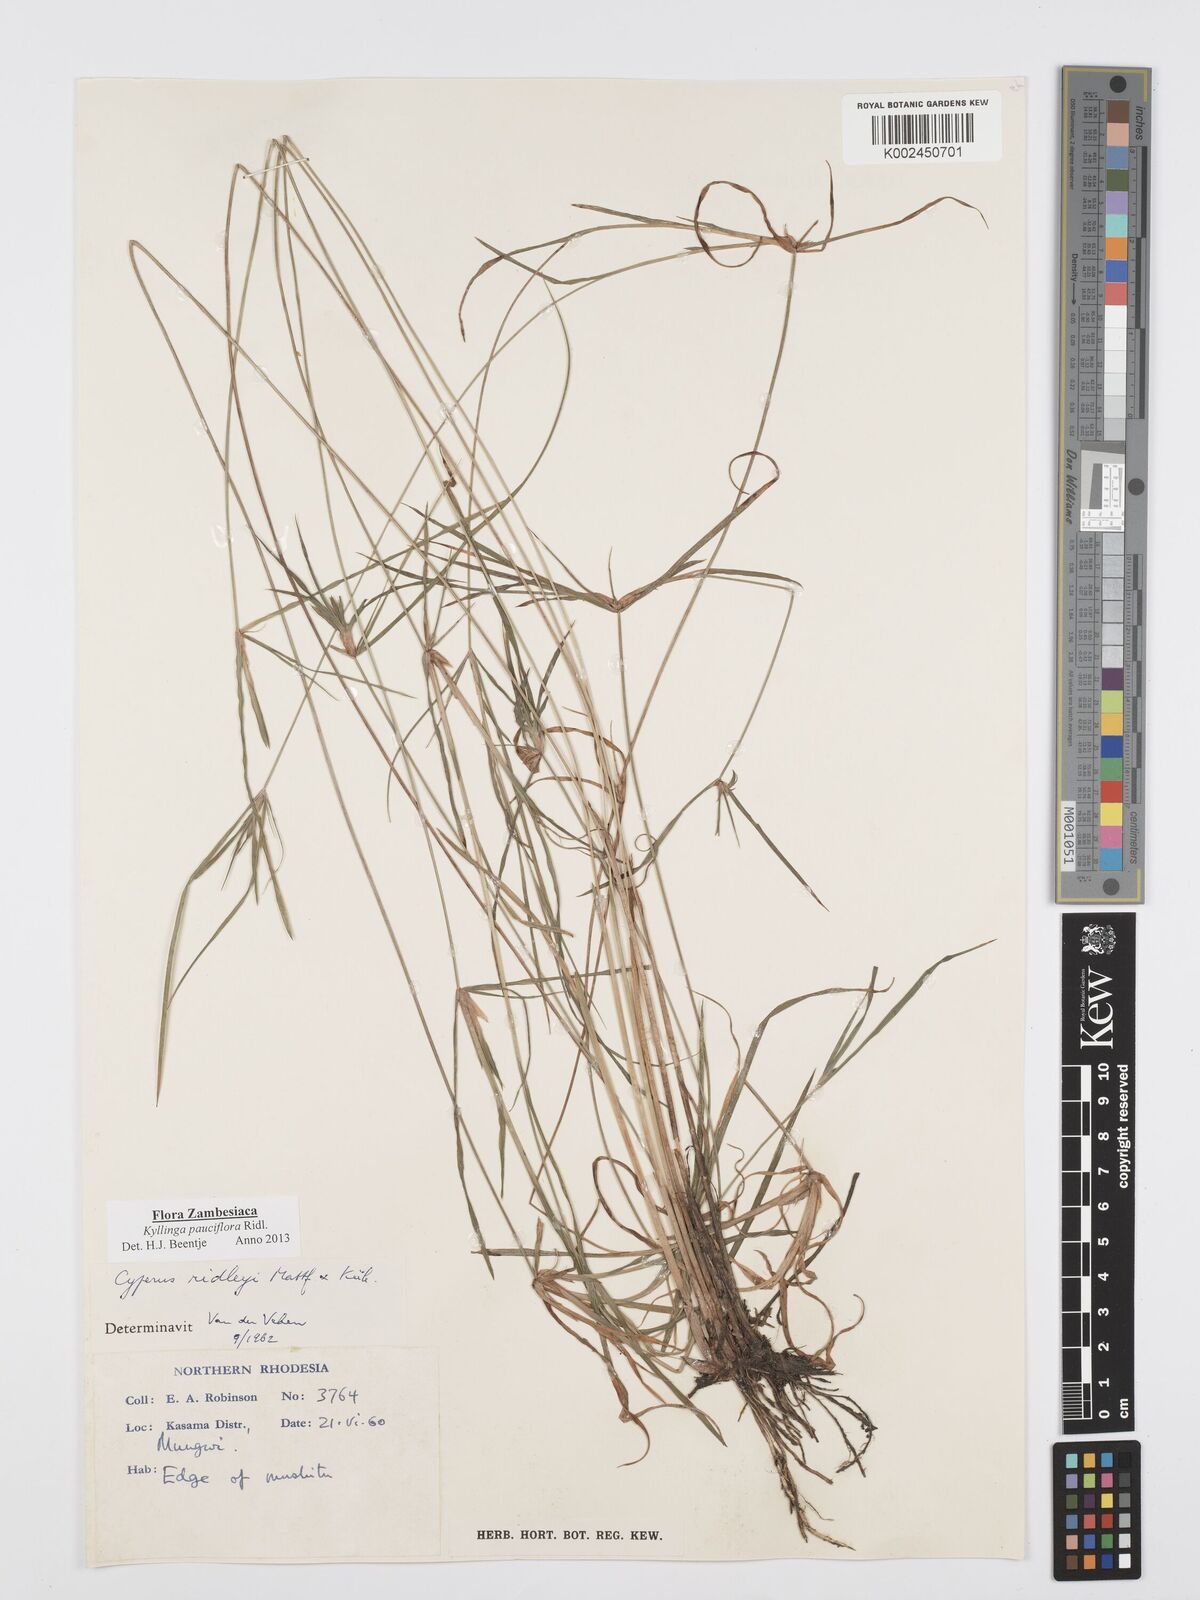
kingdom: Plantae
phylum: Tracheophyta
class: Liliopsida
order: Poales
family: Cyperaceae
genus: Cyperus
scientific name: Cyperus
